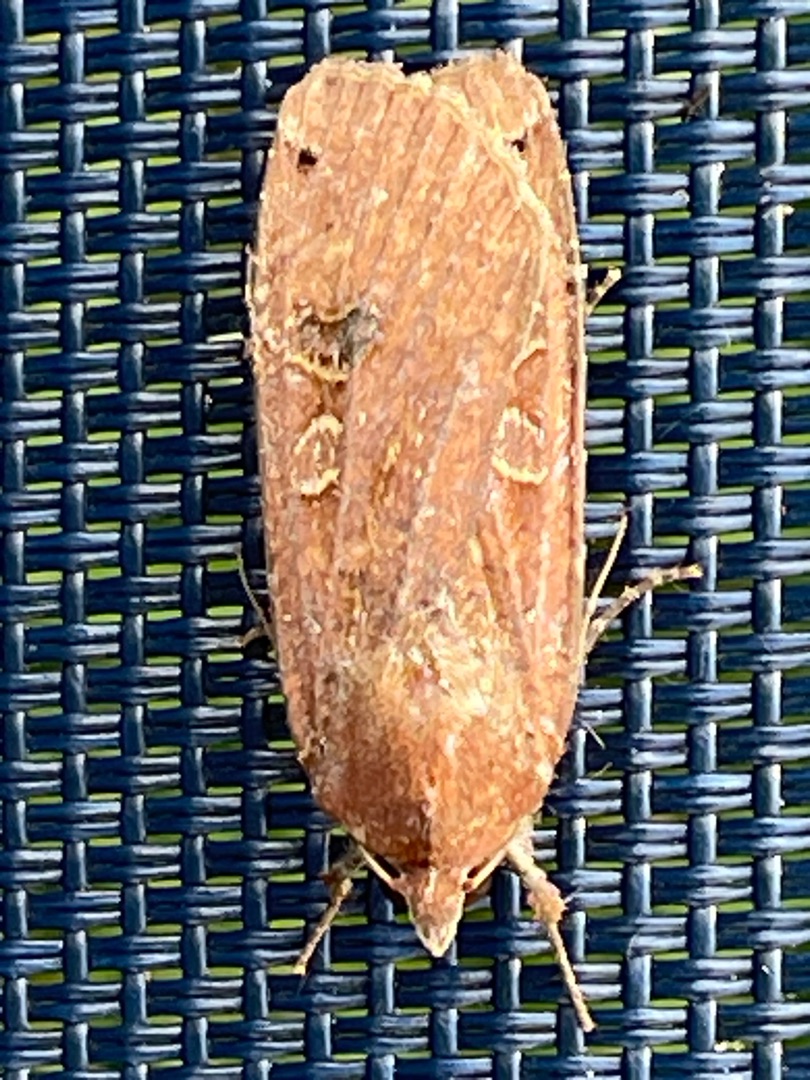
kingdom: Animalia
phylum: Arthropoda
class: Insecta
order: Lepidoptera
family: Noctuidae
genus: Noctua
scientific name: Noctua pronuba
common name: Stor smutugle
